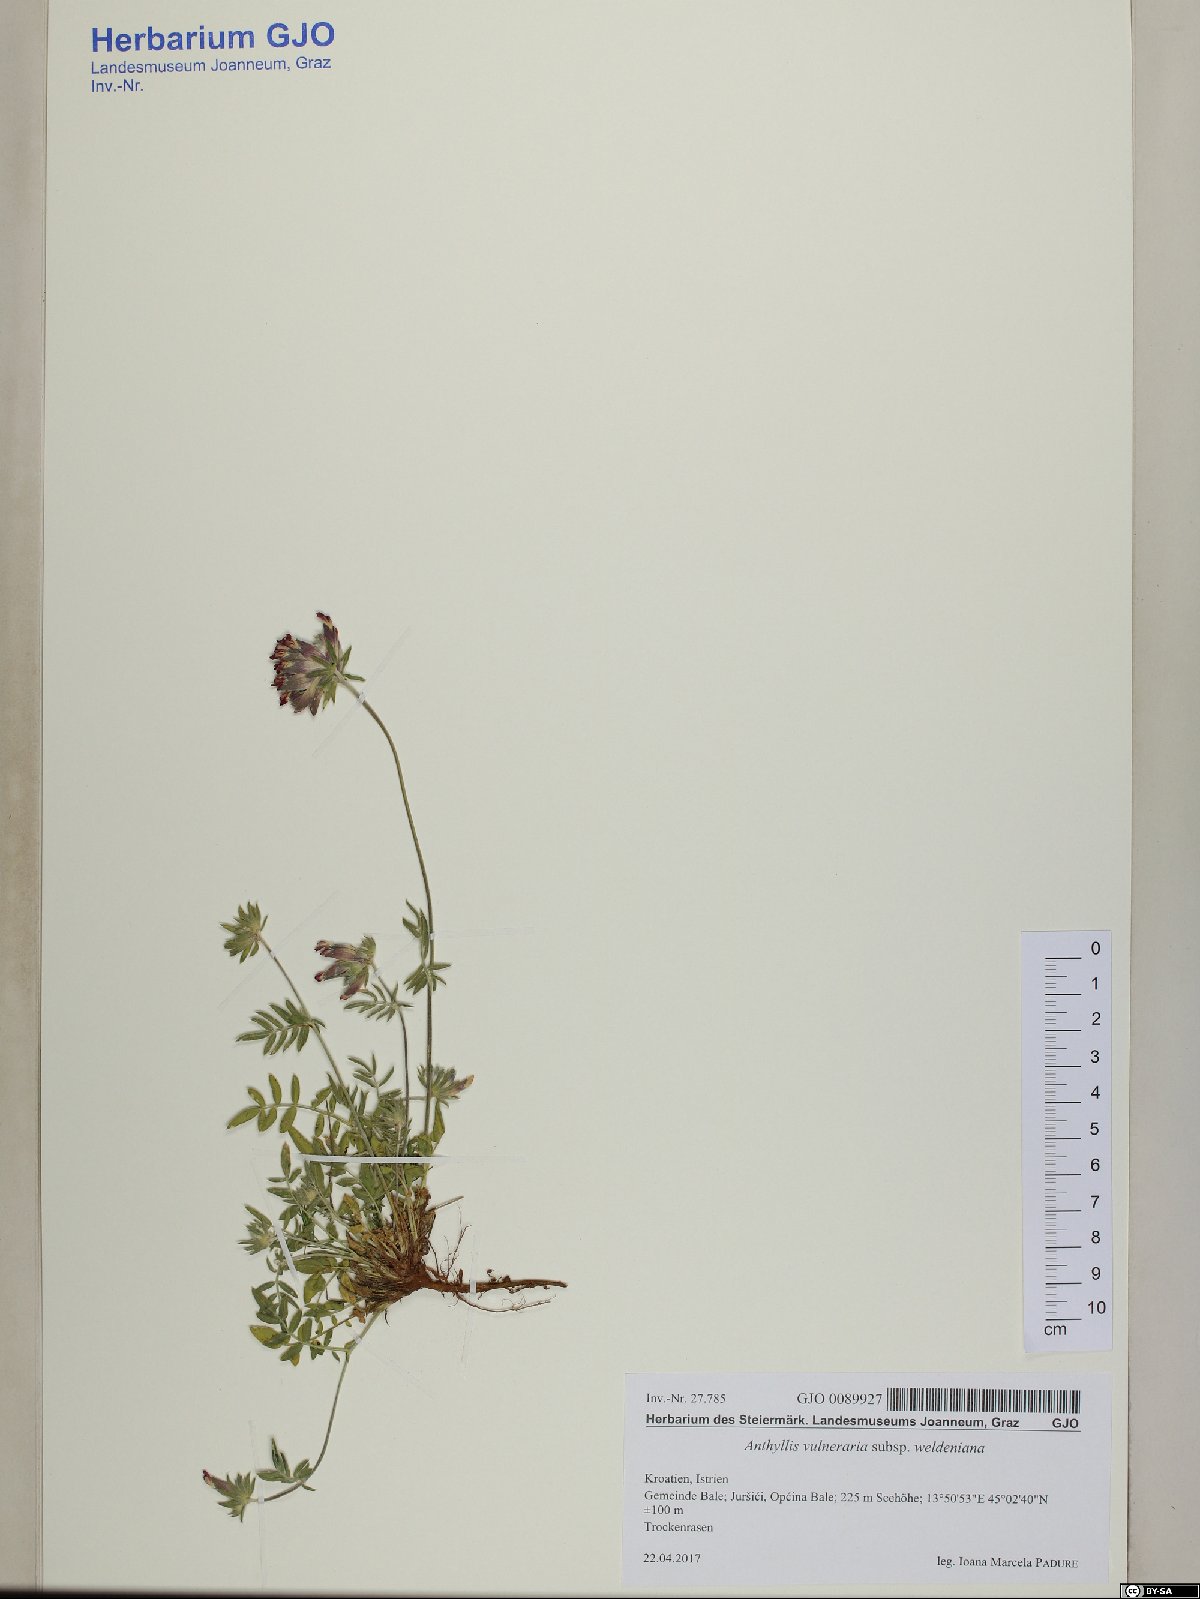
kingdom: Plantae
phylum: Tracheophyta
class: Magnoliopsida
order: Fabales
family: Fabaceae
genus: Anthyllis
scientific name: Anthyllis vulneraria
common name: Kidney vetch
